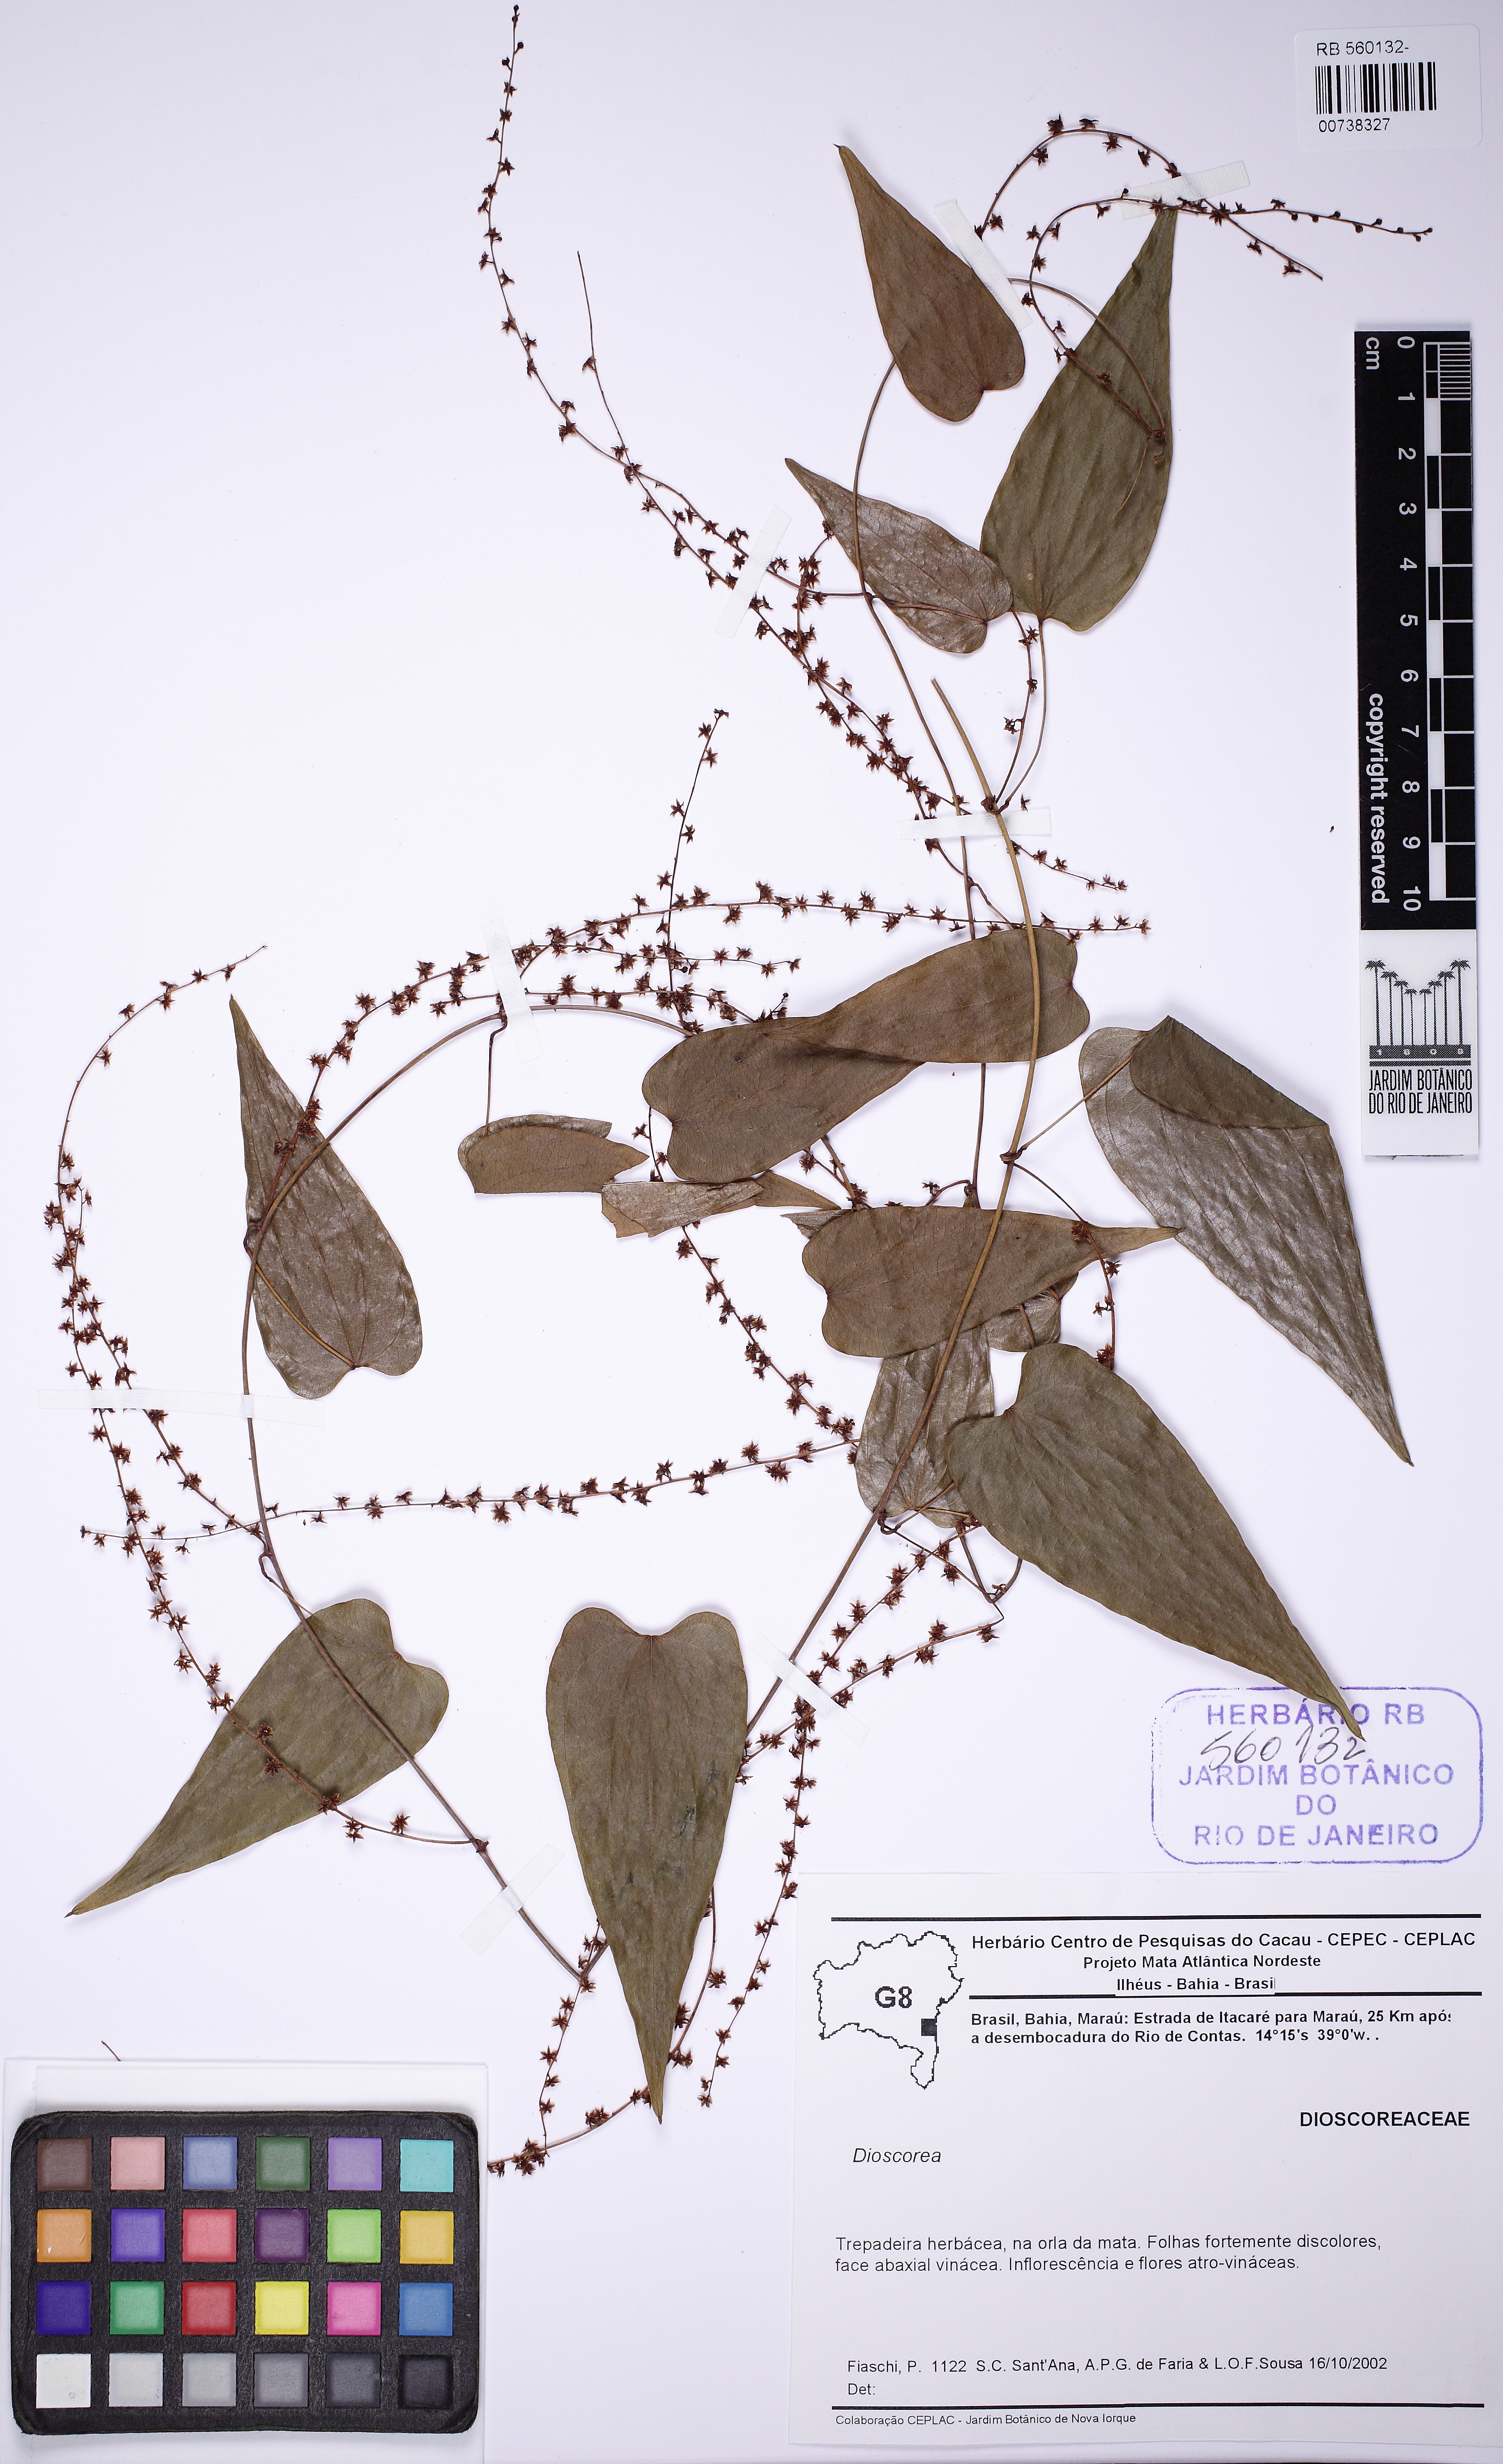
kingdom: Plantae
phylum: Tracheophyta
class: Liliopsida
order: Dioscoreales
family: Dioscoreaceae
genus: Dioscorea
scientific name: Dioscorea planistipulosa
